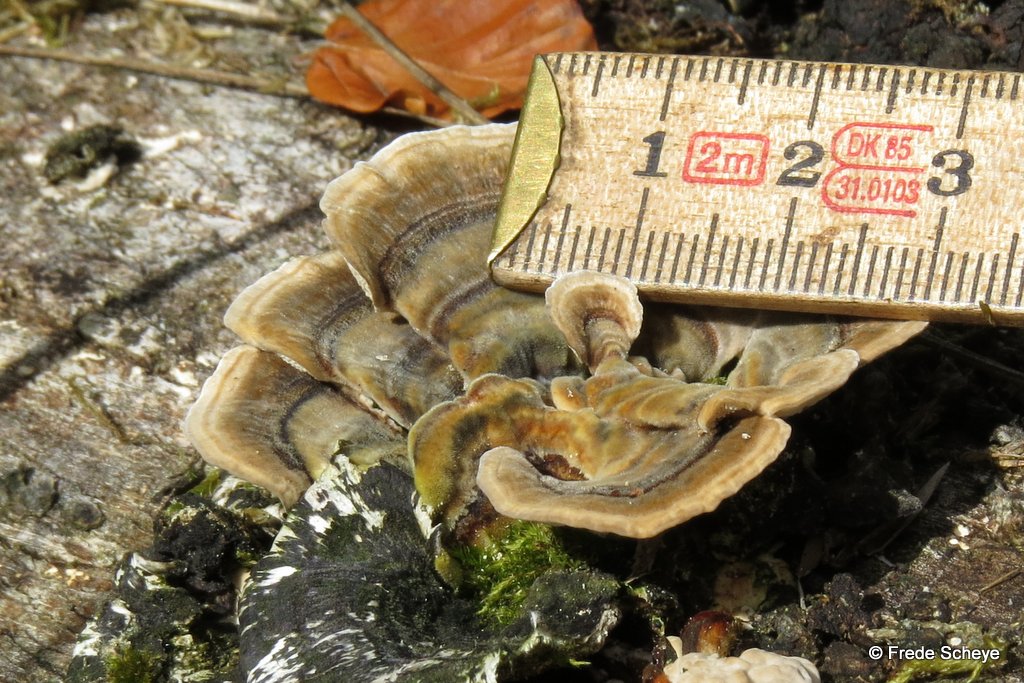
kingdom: Fungi
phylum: Basidiomycota
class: Agaricomycetes
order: Polyporales
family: Polyporaceae
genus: Trametes
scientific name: Trametes versicolor
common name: broget læderporesvamp
